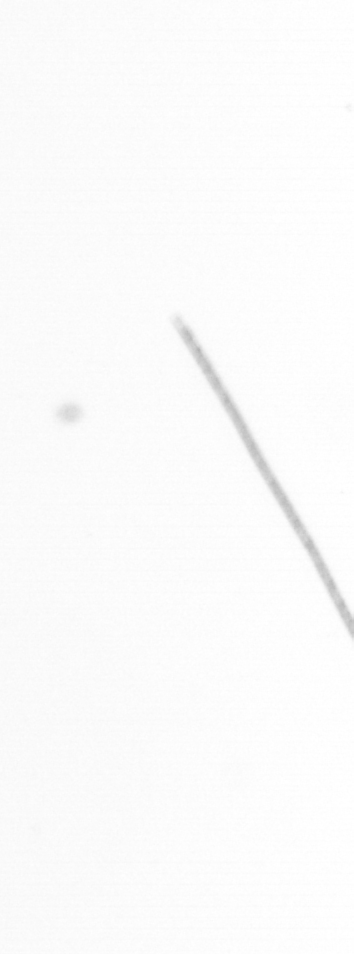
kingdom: Chromista
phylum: Ochrophyta
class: Bacillariophyceae
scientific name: Bacillariophyceae
